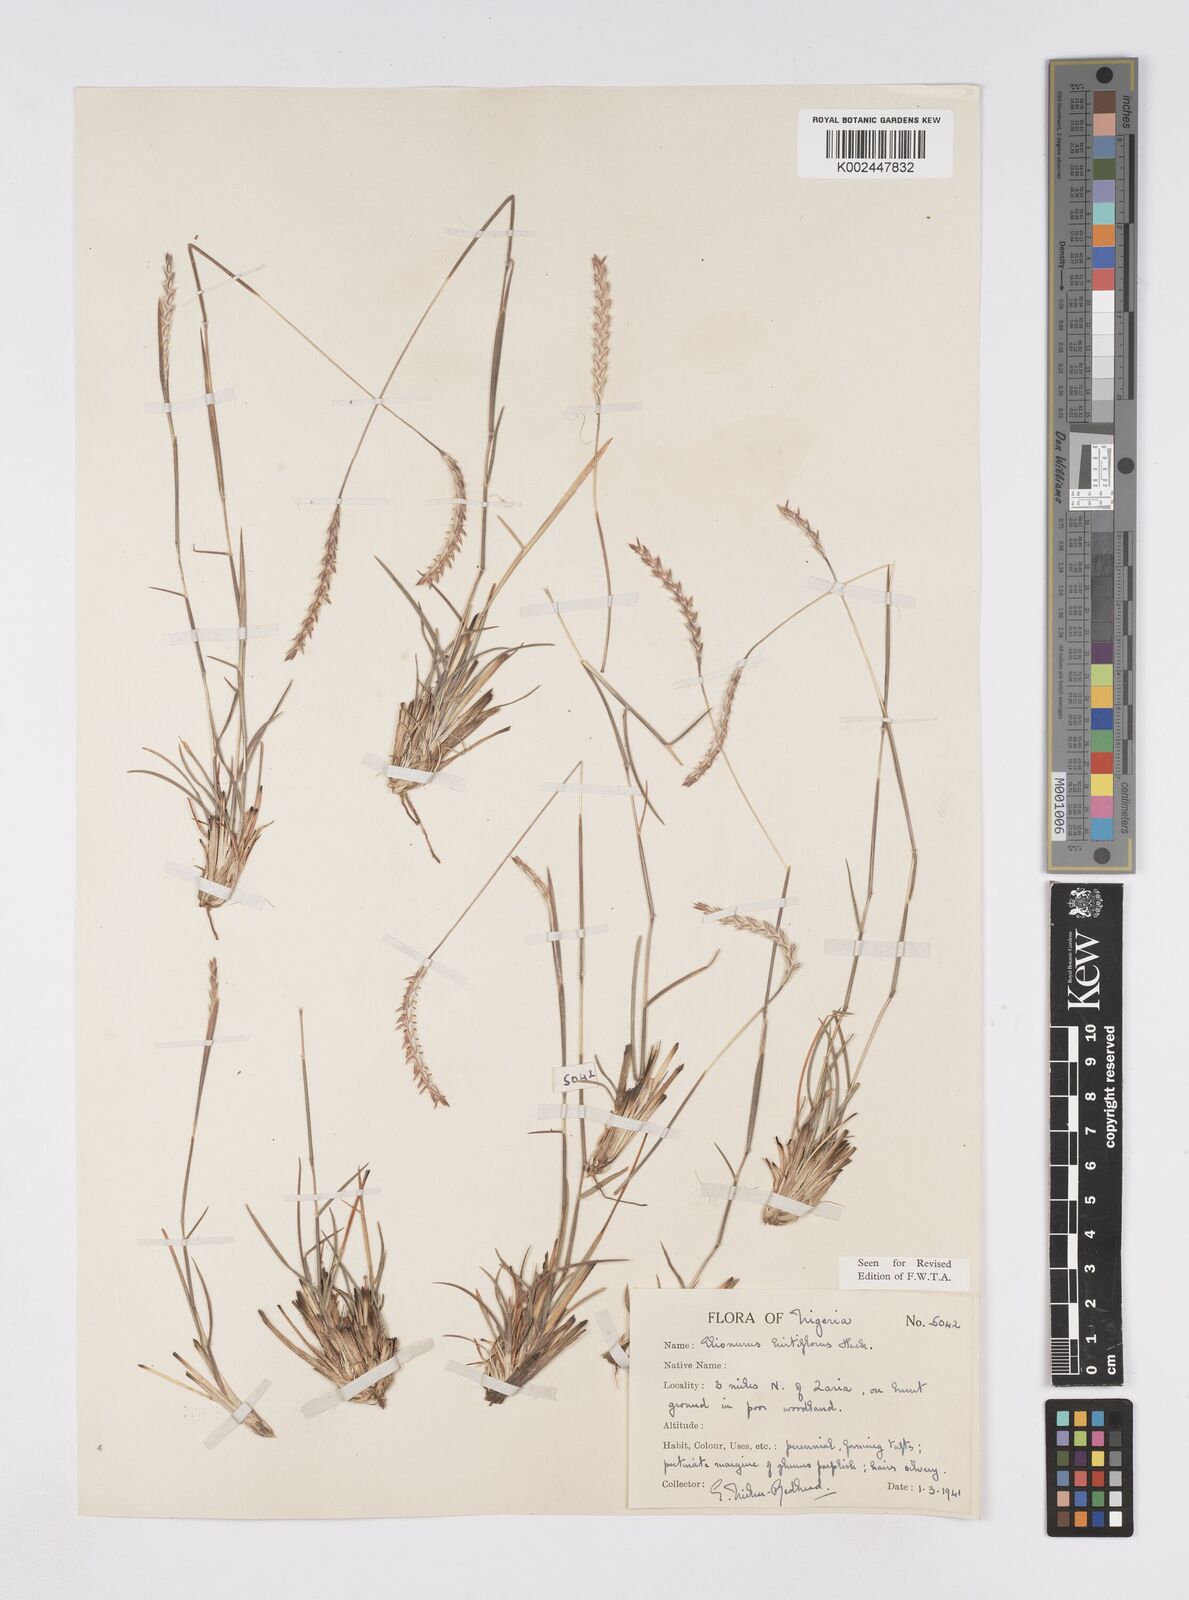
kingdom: Plantae
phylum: Tracheophyta
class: Liliopsida
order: Poales
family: Poaceae
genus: Elionurus
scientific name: Elionurus hirtifolius
